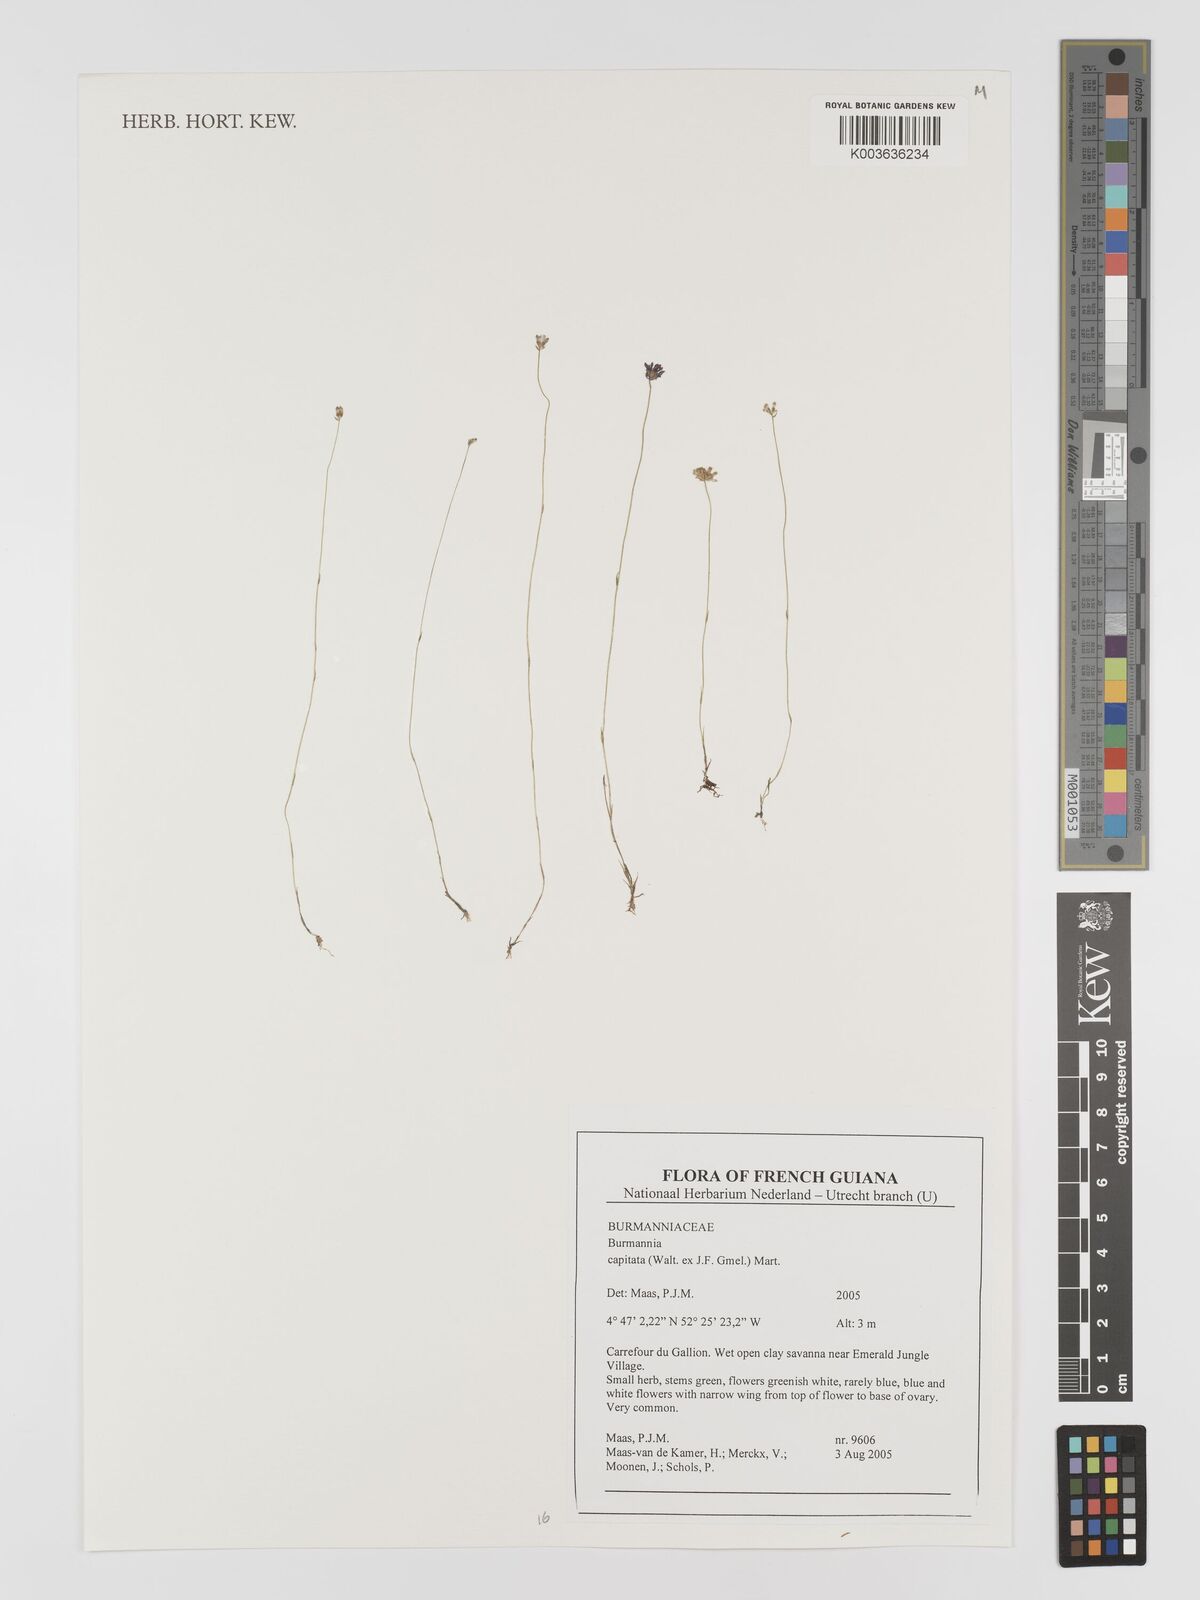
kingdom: Plantae
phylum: Tracheophyta
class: Liliopsida
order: Dioscoreales
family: Burmanniaceae
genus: Burmannia
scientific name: Burmannia capitata
